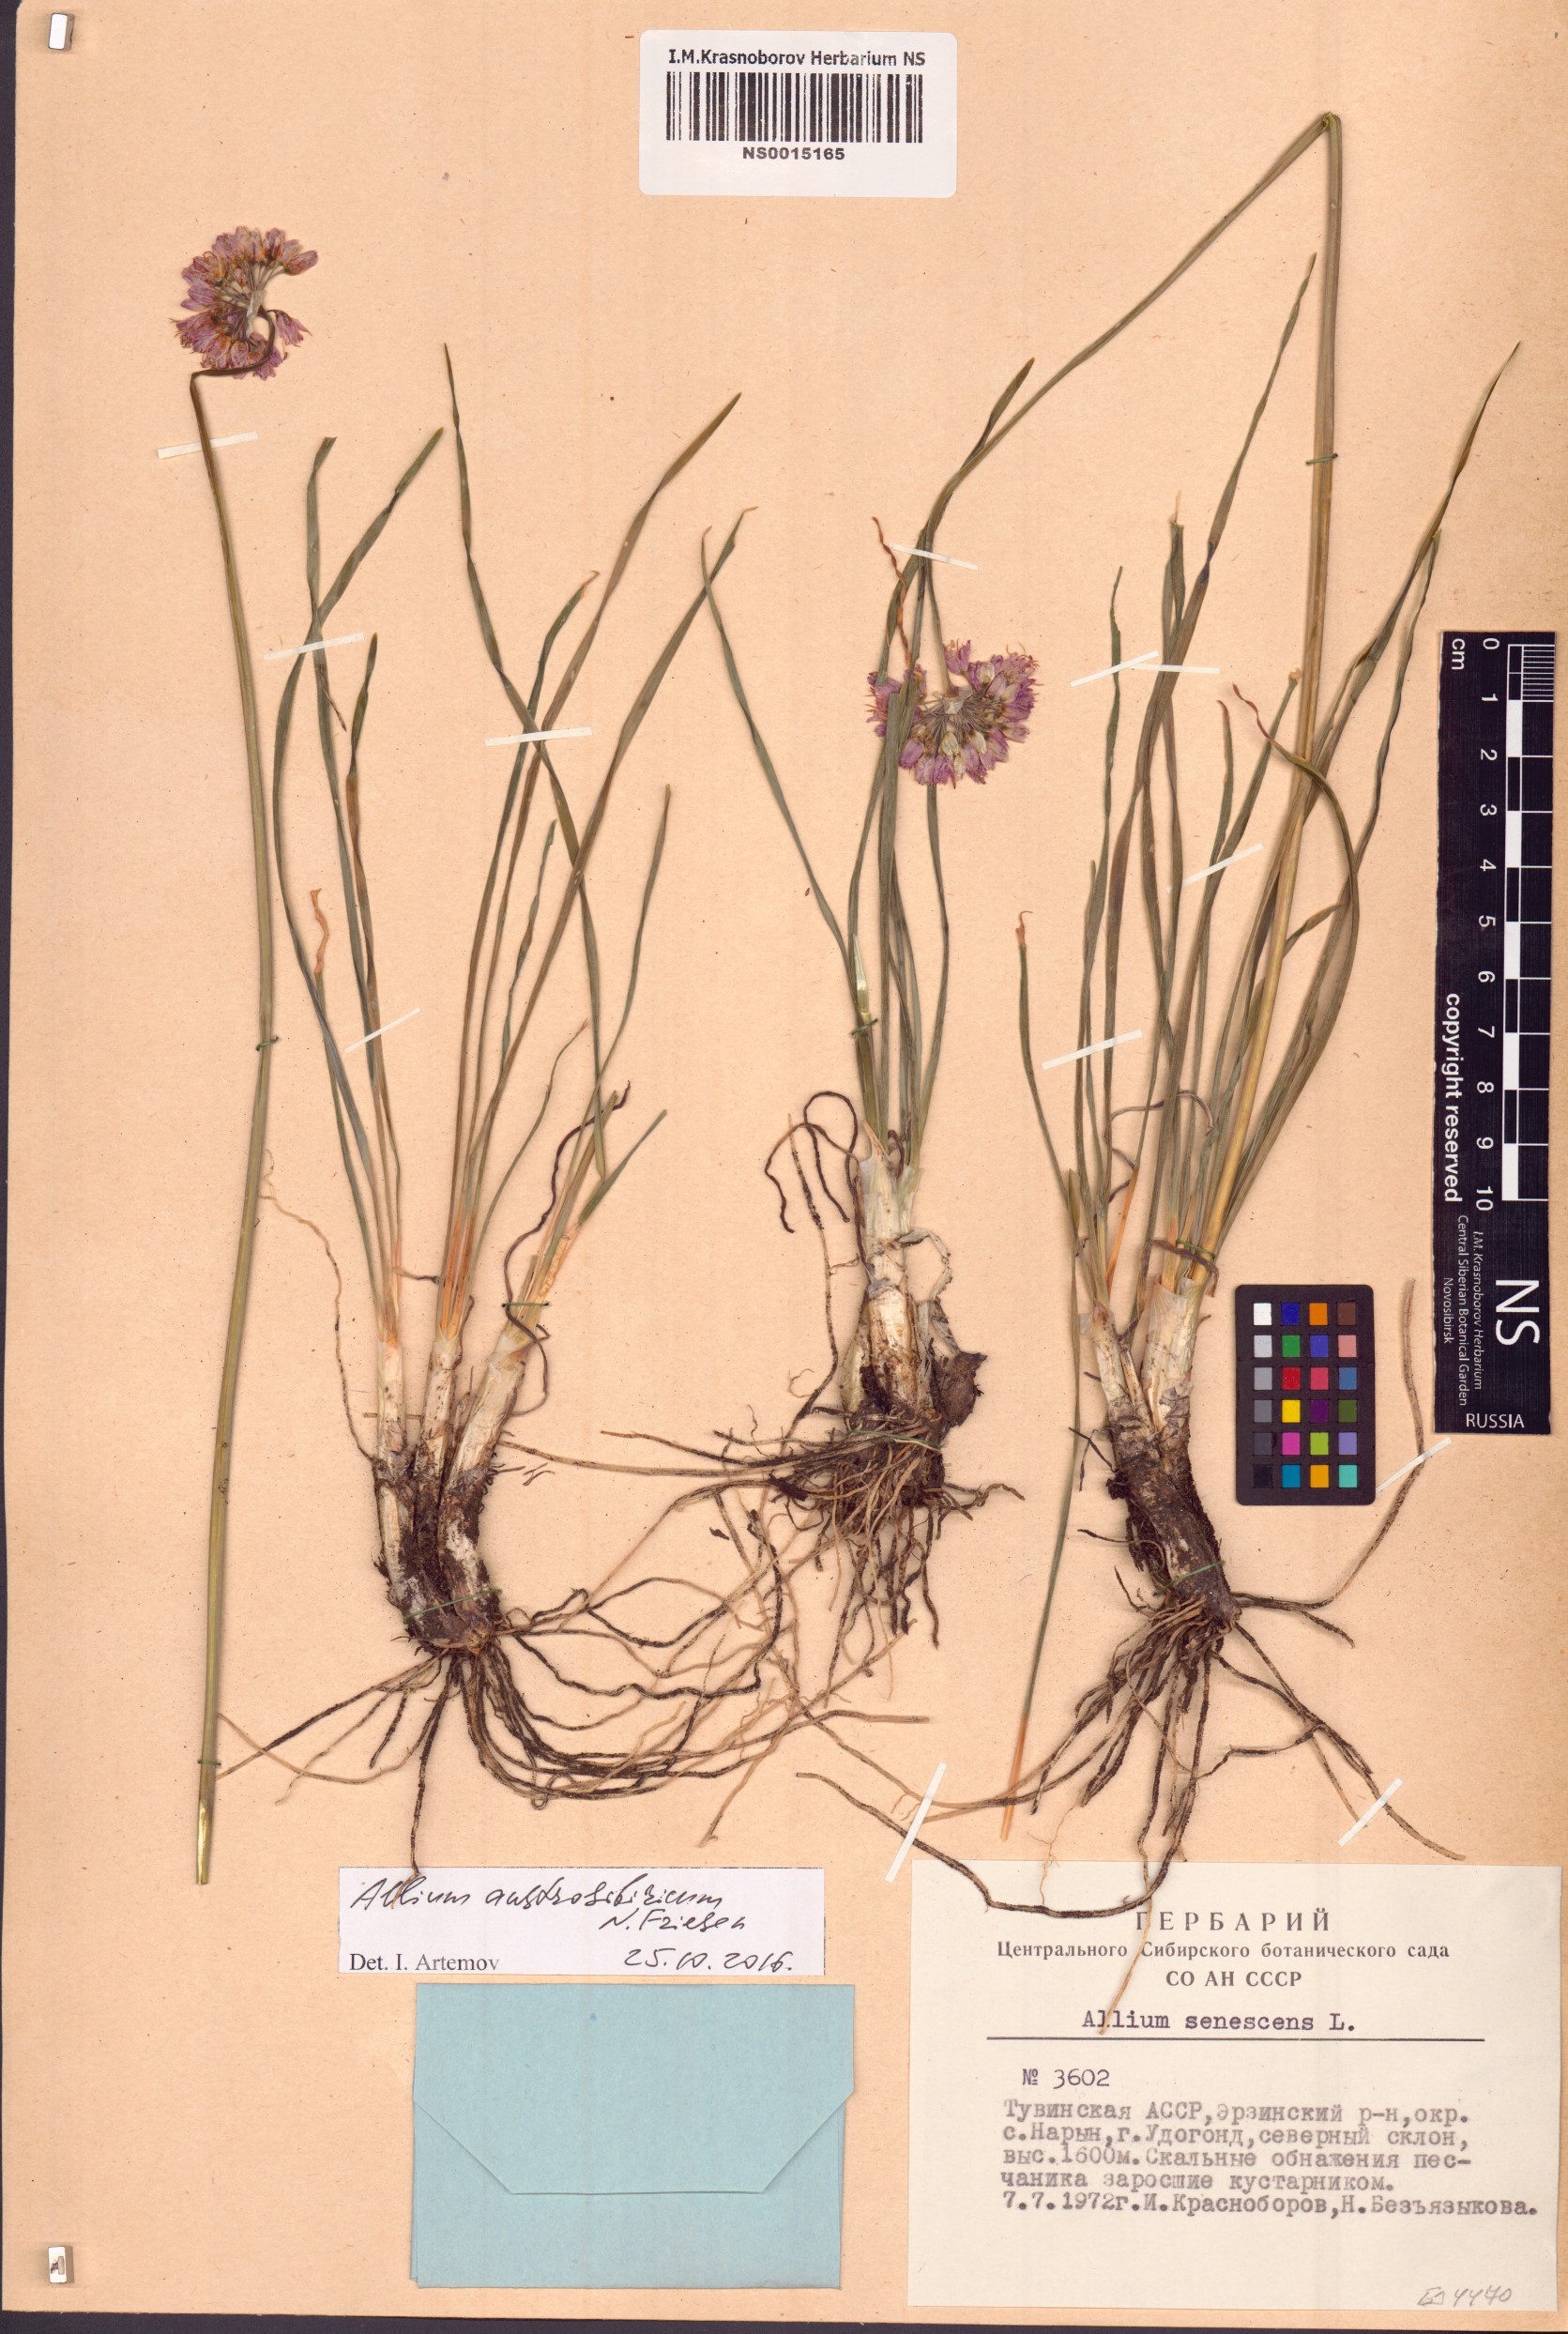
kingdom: Plantae
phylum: Tracheophyta
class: Liliopsida
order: Asparagales
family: Amaryllidaceae
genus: Allium
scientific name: Allium austrosibiricum
